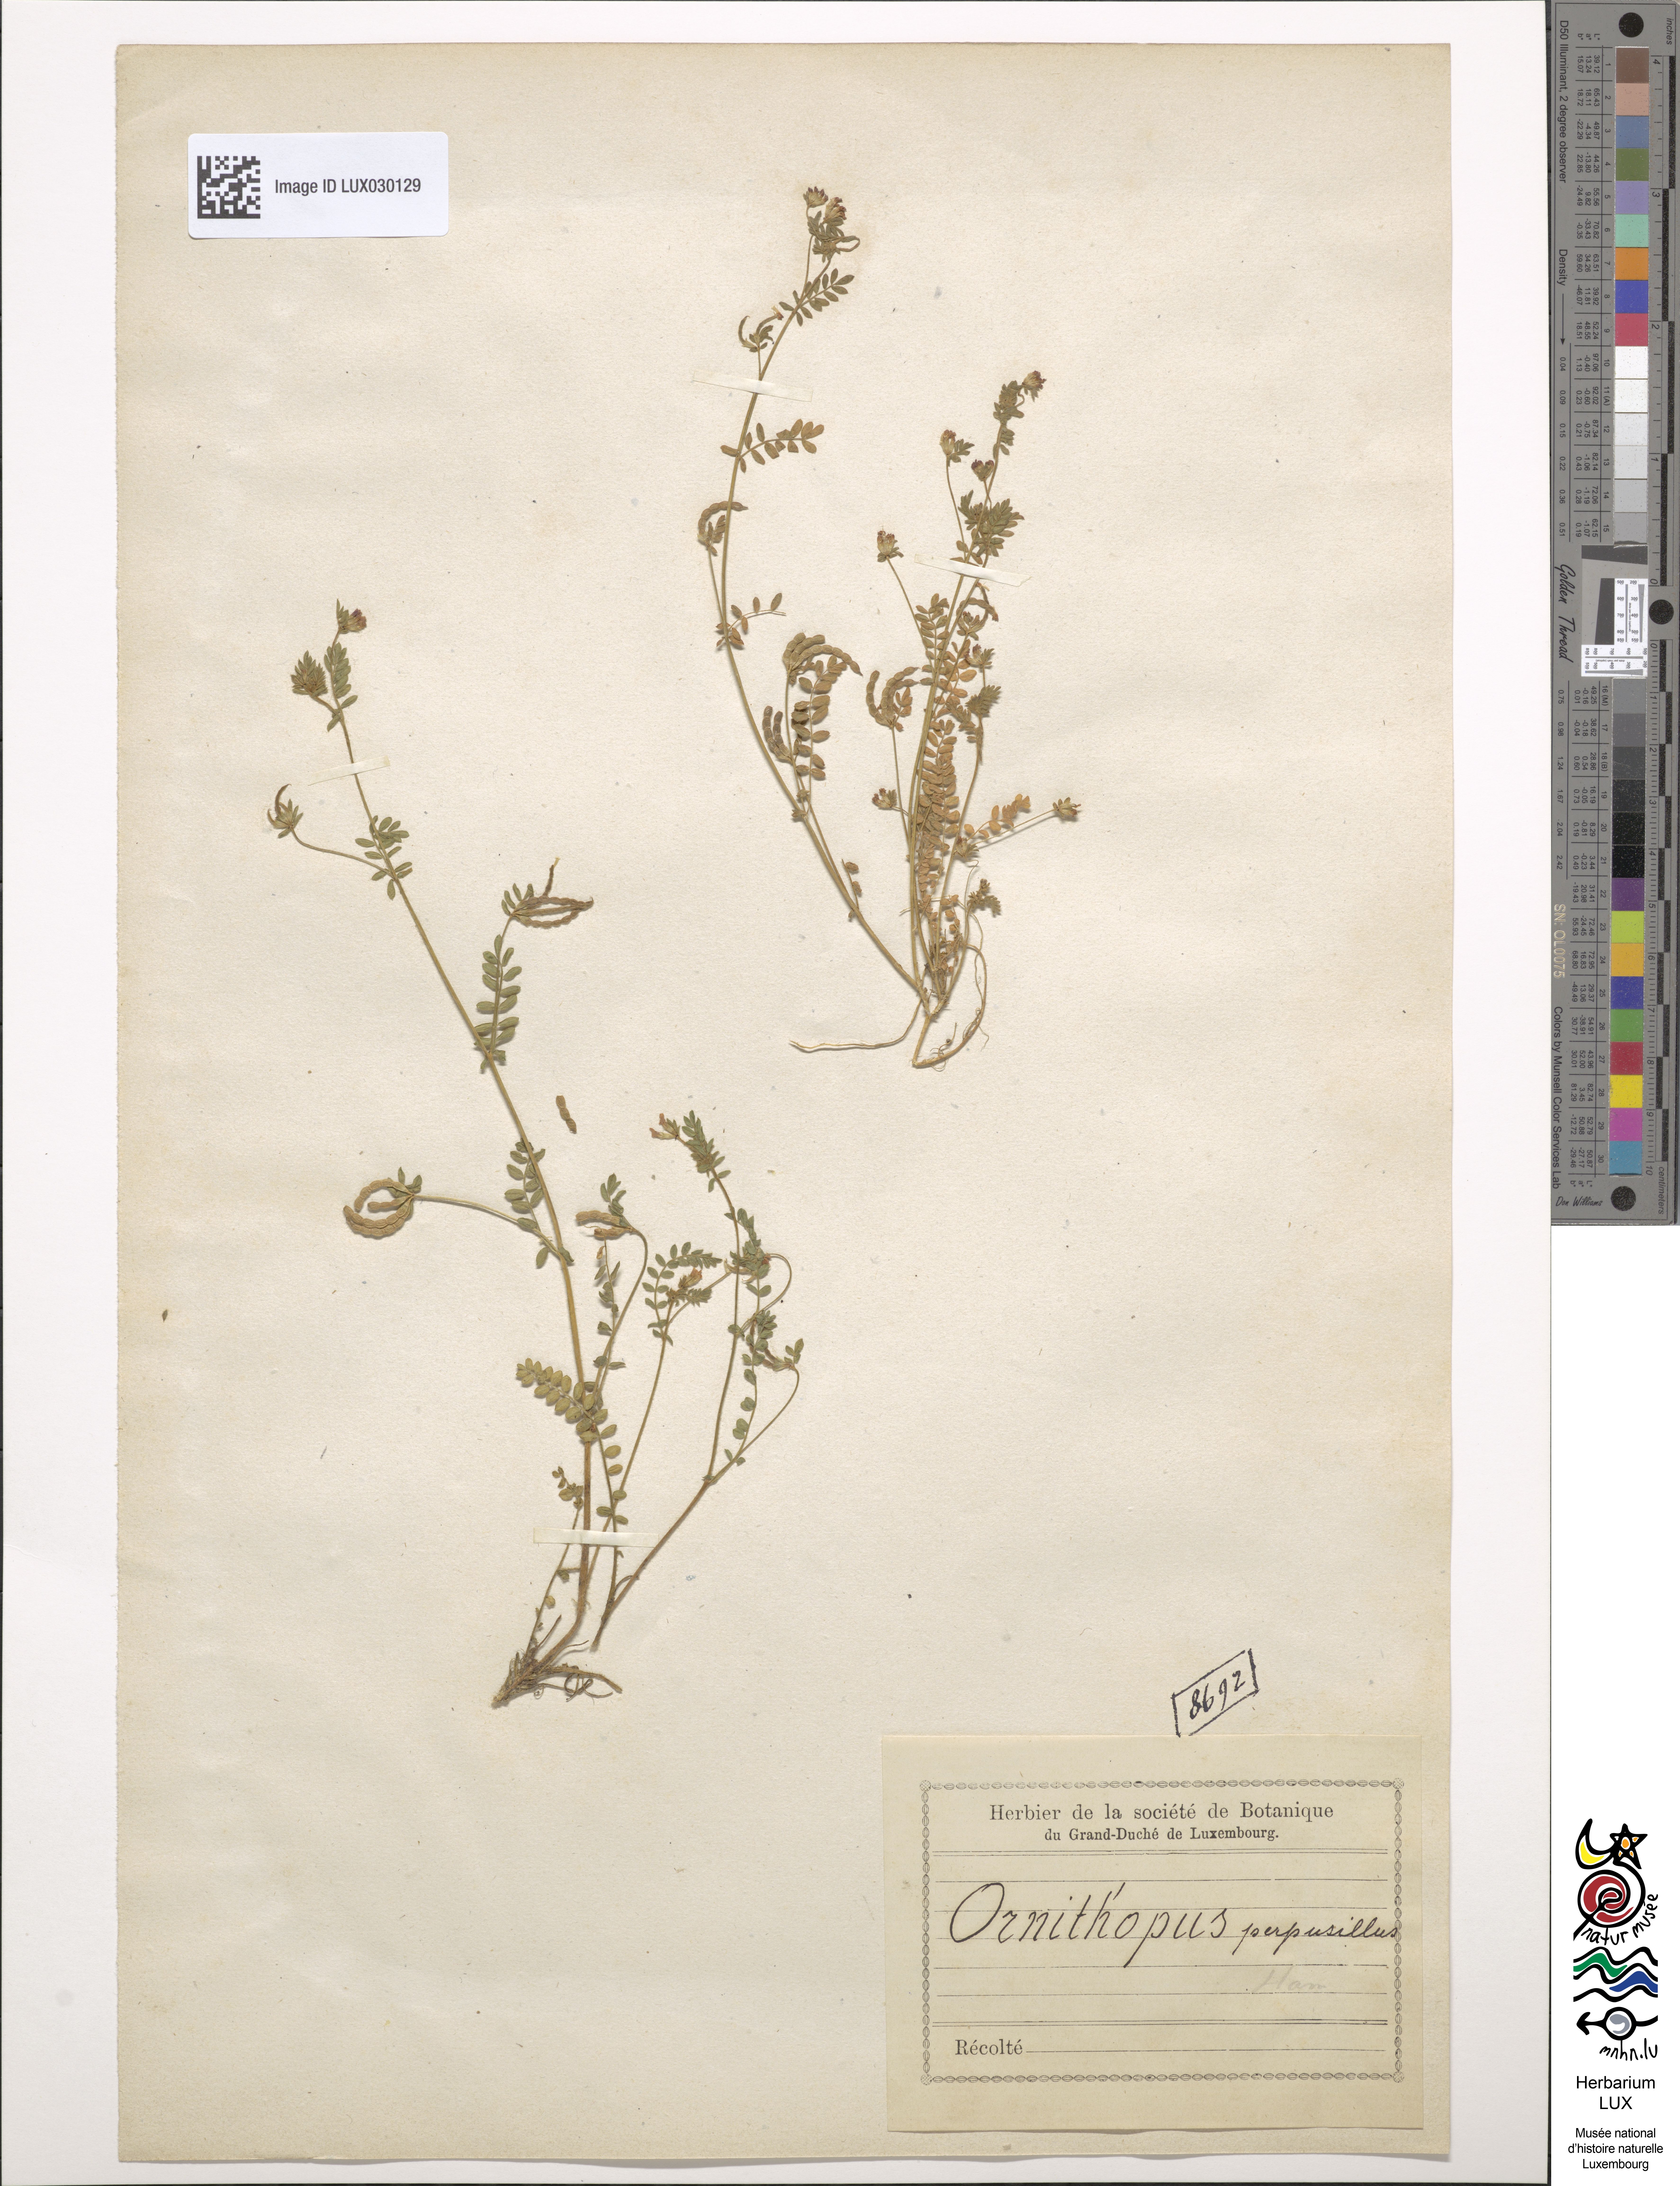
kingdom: Plantae
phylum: Tracheophyta
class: Magnoliopsida
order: Fabales
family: Fabaceae
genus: Ornithopus
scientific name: Ornithopus perpusillus
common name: Bird's-foot
